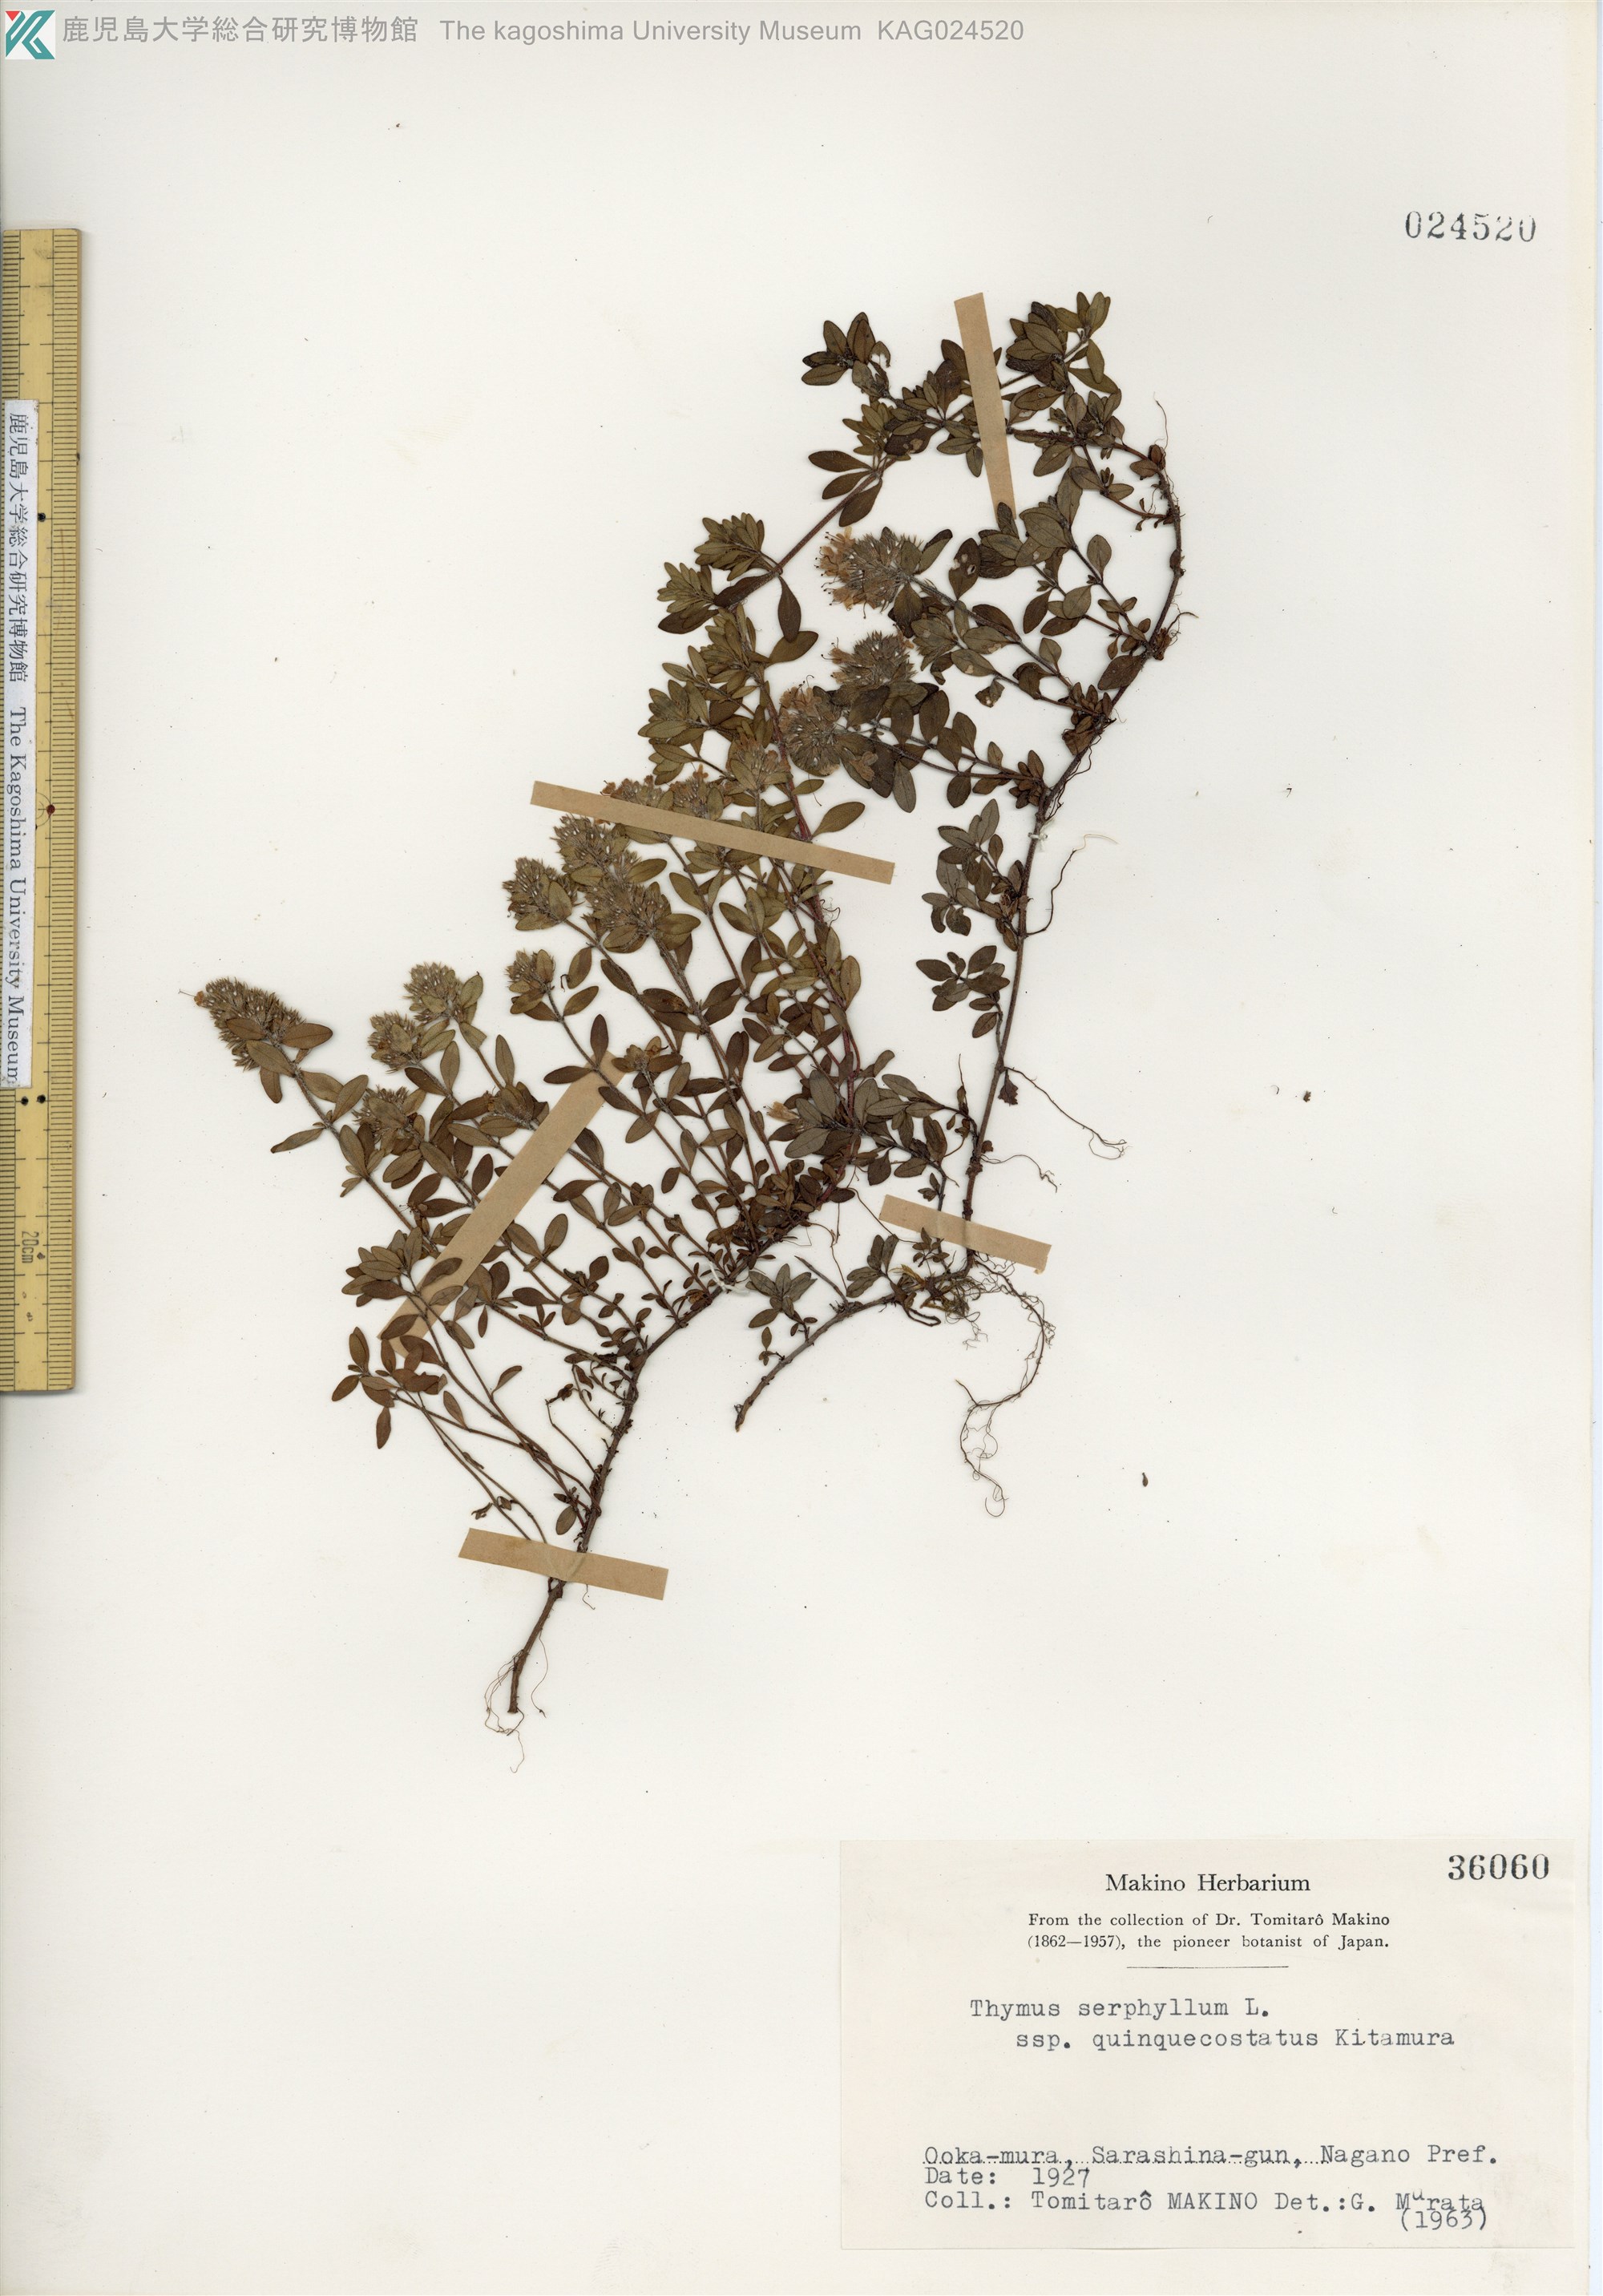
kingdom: Plantae
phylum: Tracheophyta
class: Magnoliopsida
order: Lamiales
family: Lamiaceae
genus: Thymus
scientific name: Thymus quinquecostatus
